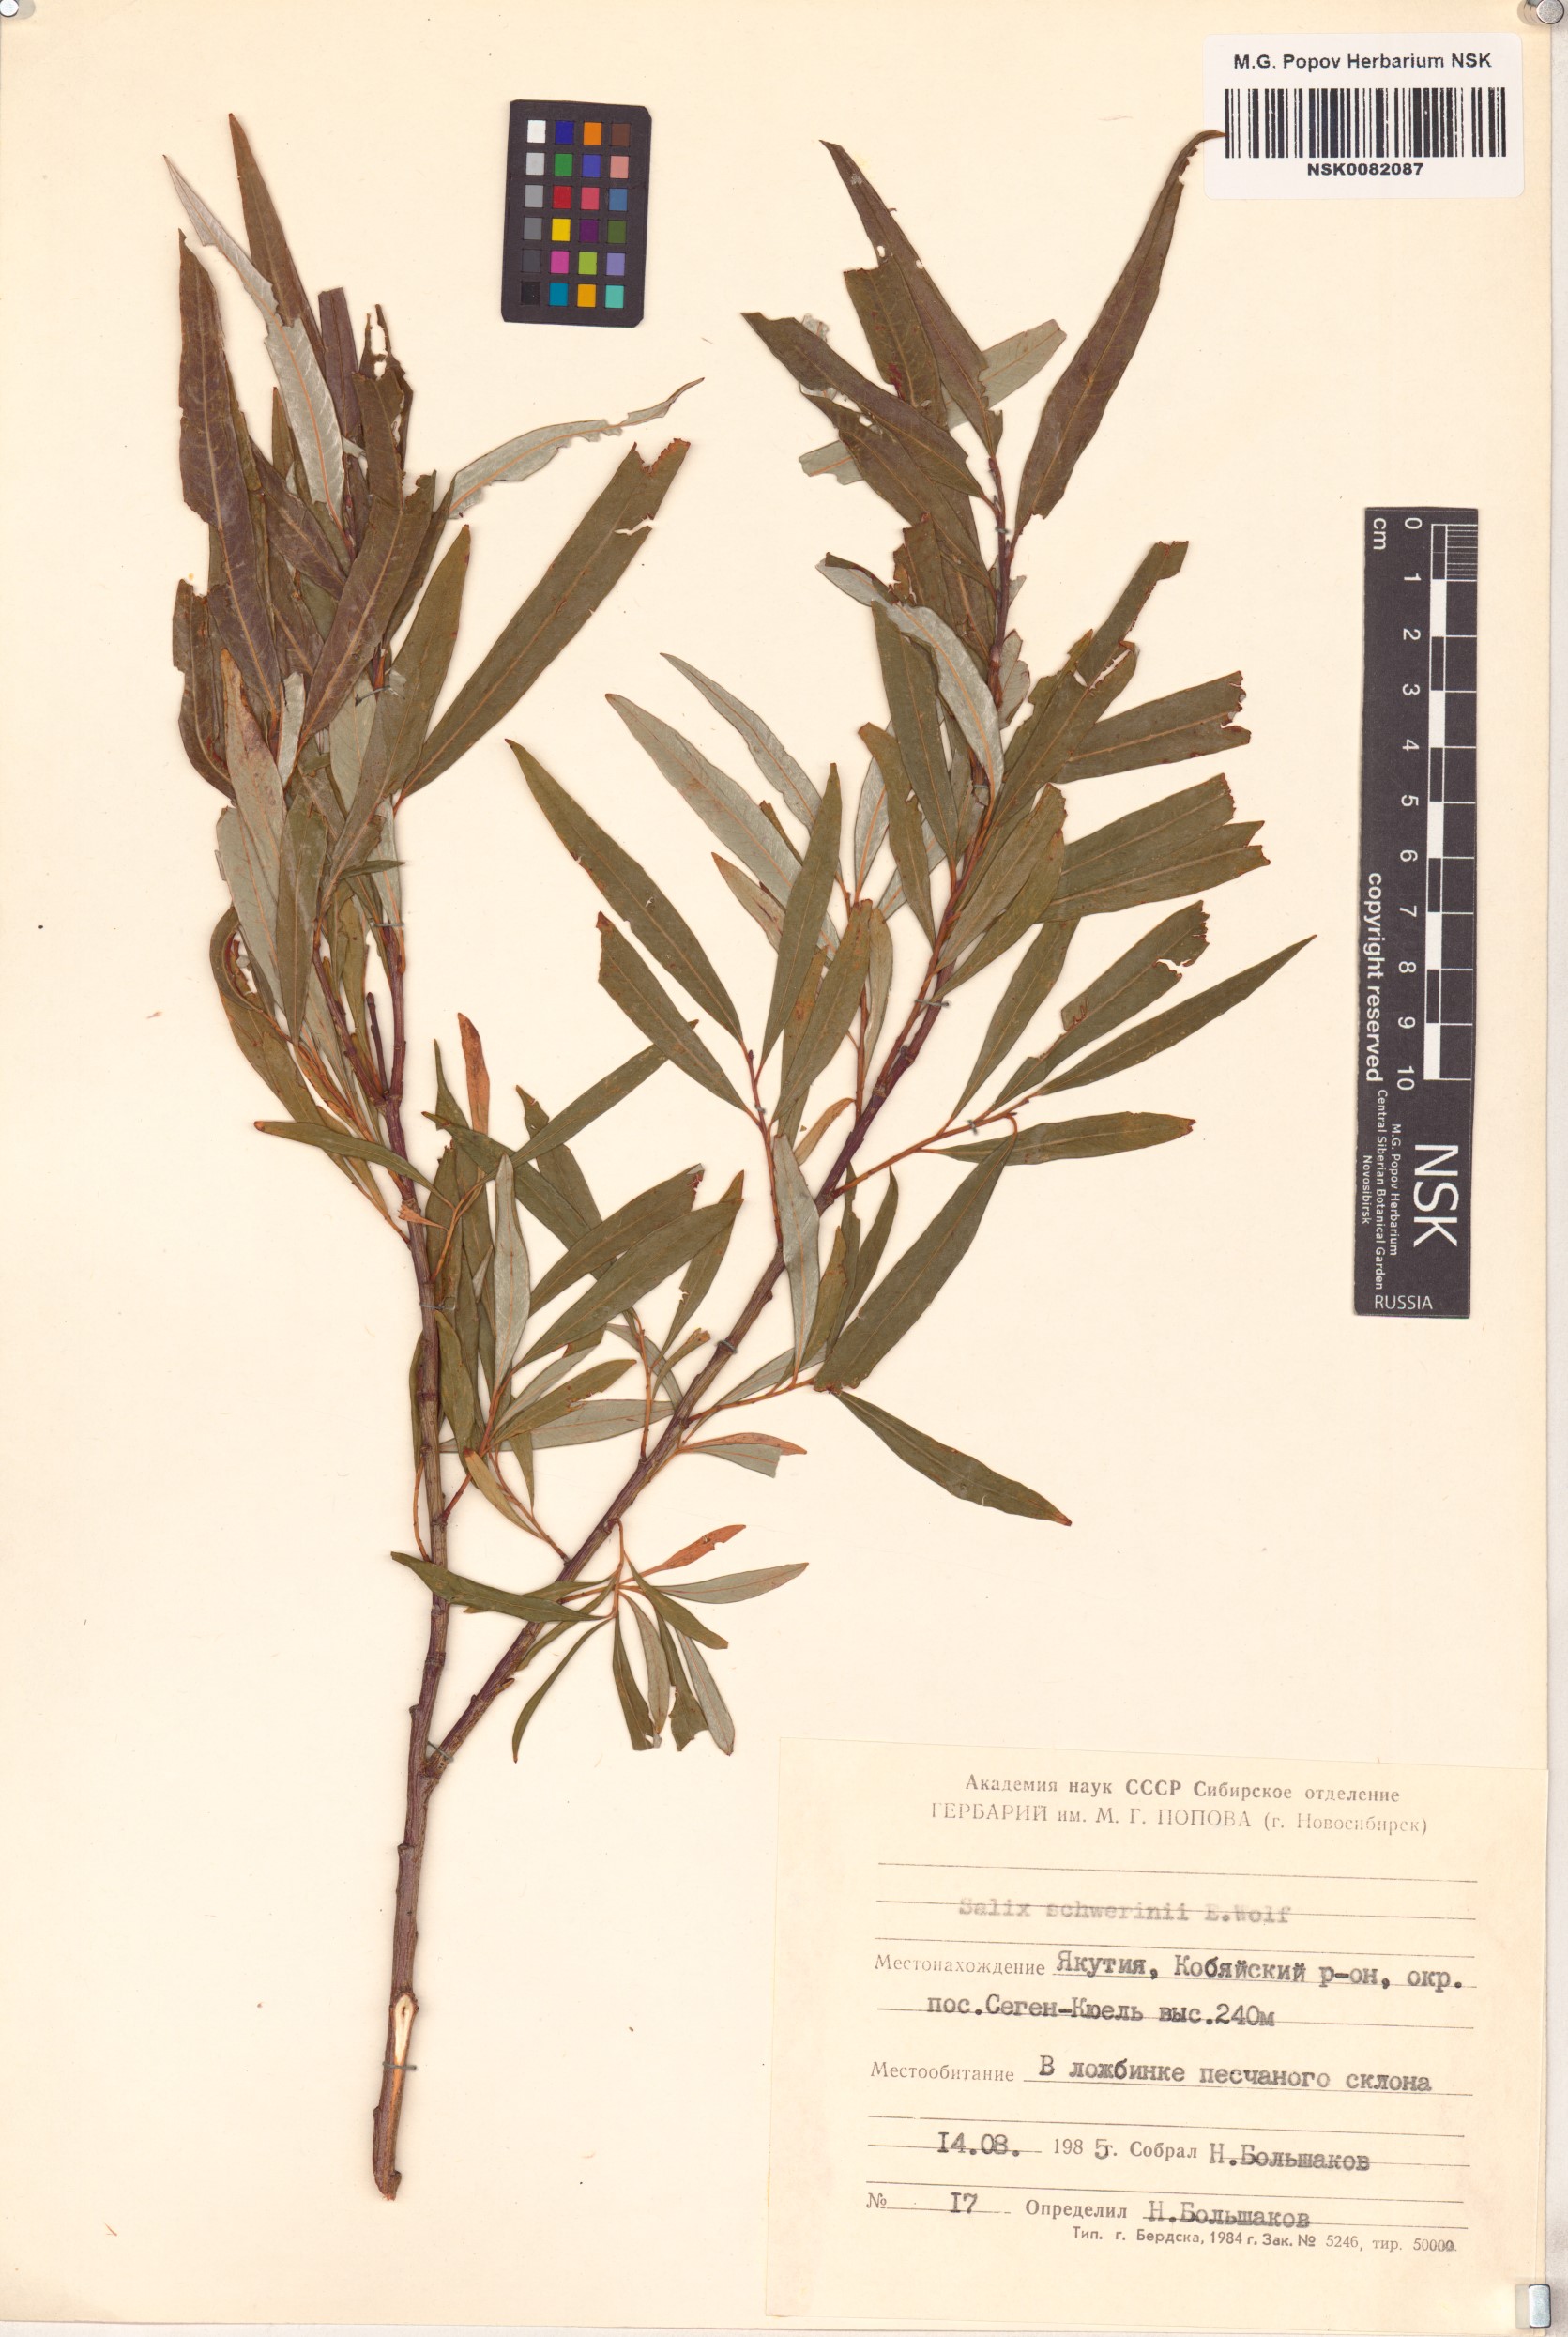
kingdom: Plantae
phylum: Tracheophyta
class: Magnoliopsida
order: Malpighiales
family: Salicaceae
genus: Salix
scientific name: Salix schwerinii
